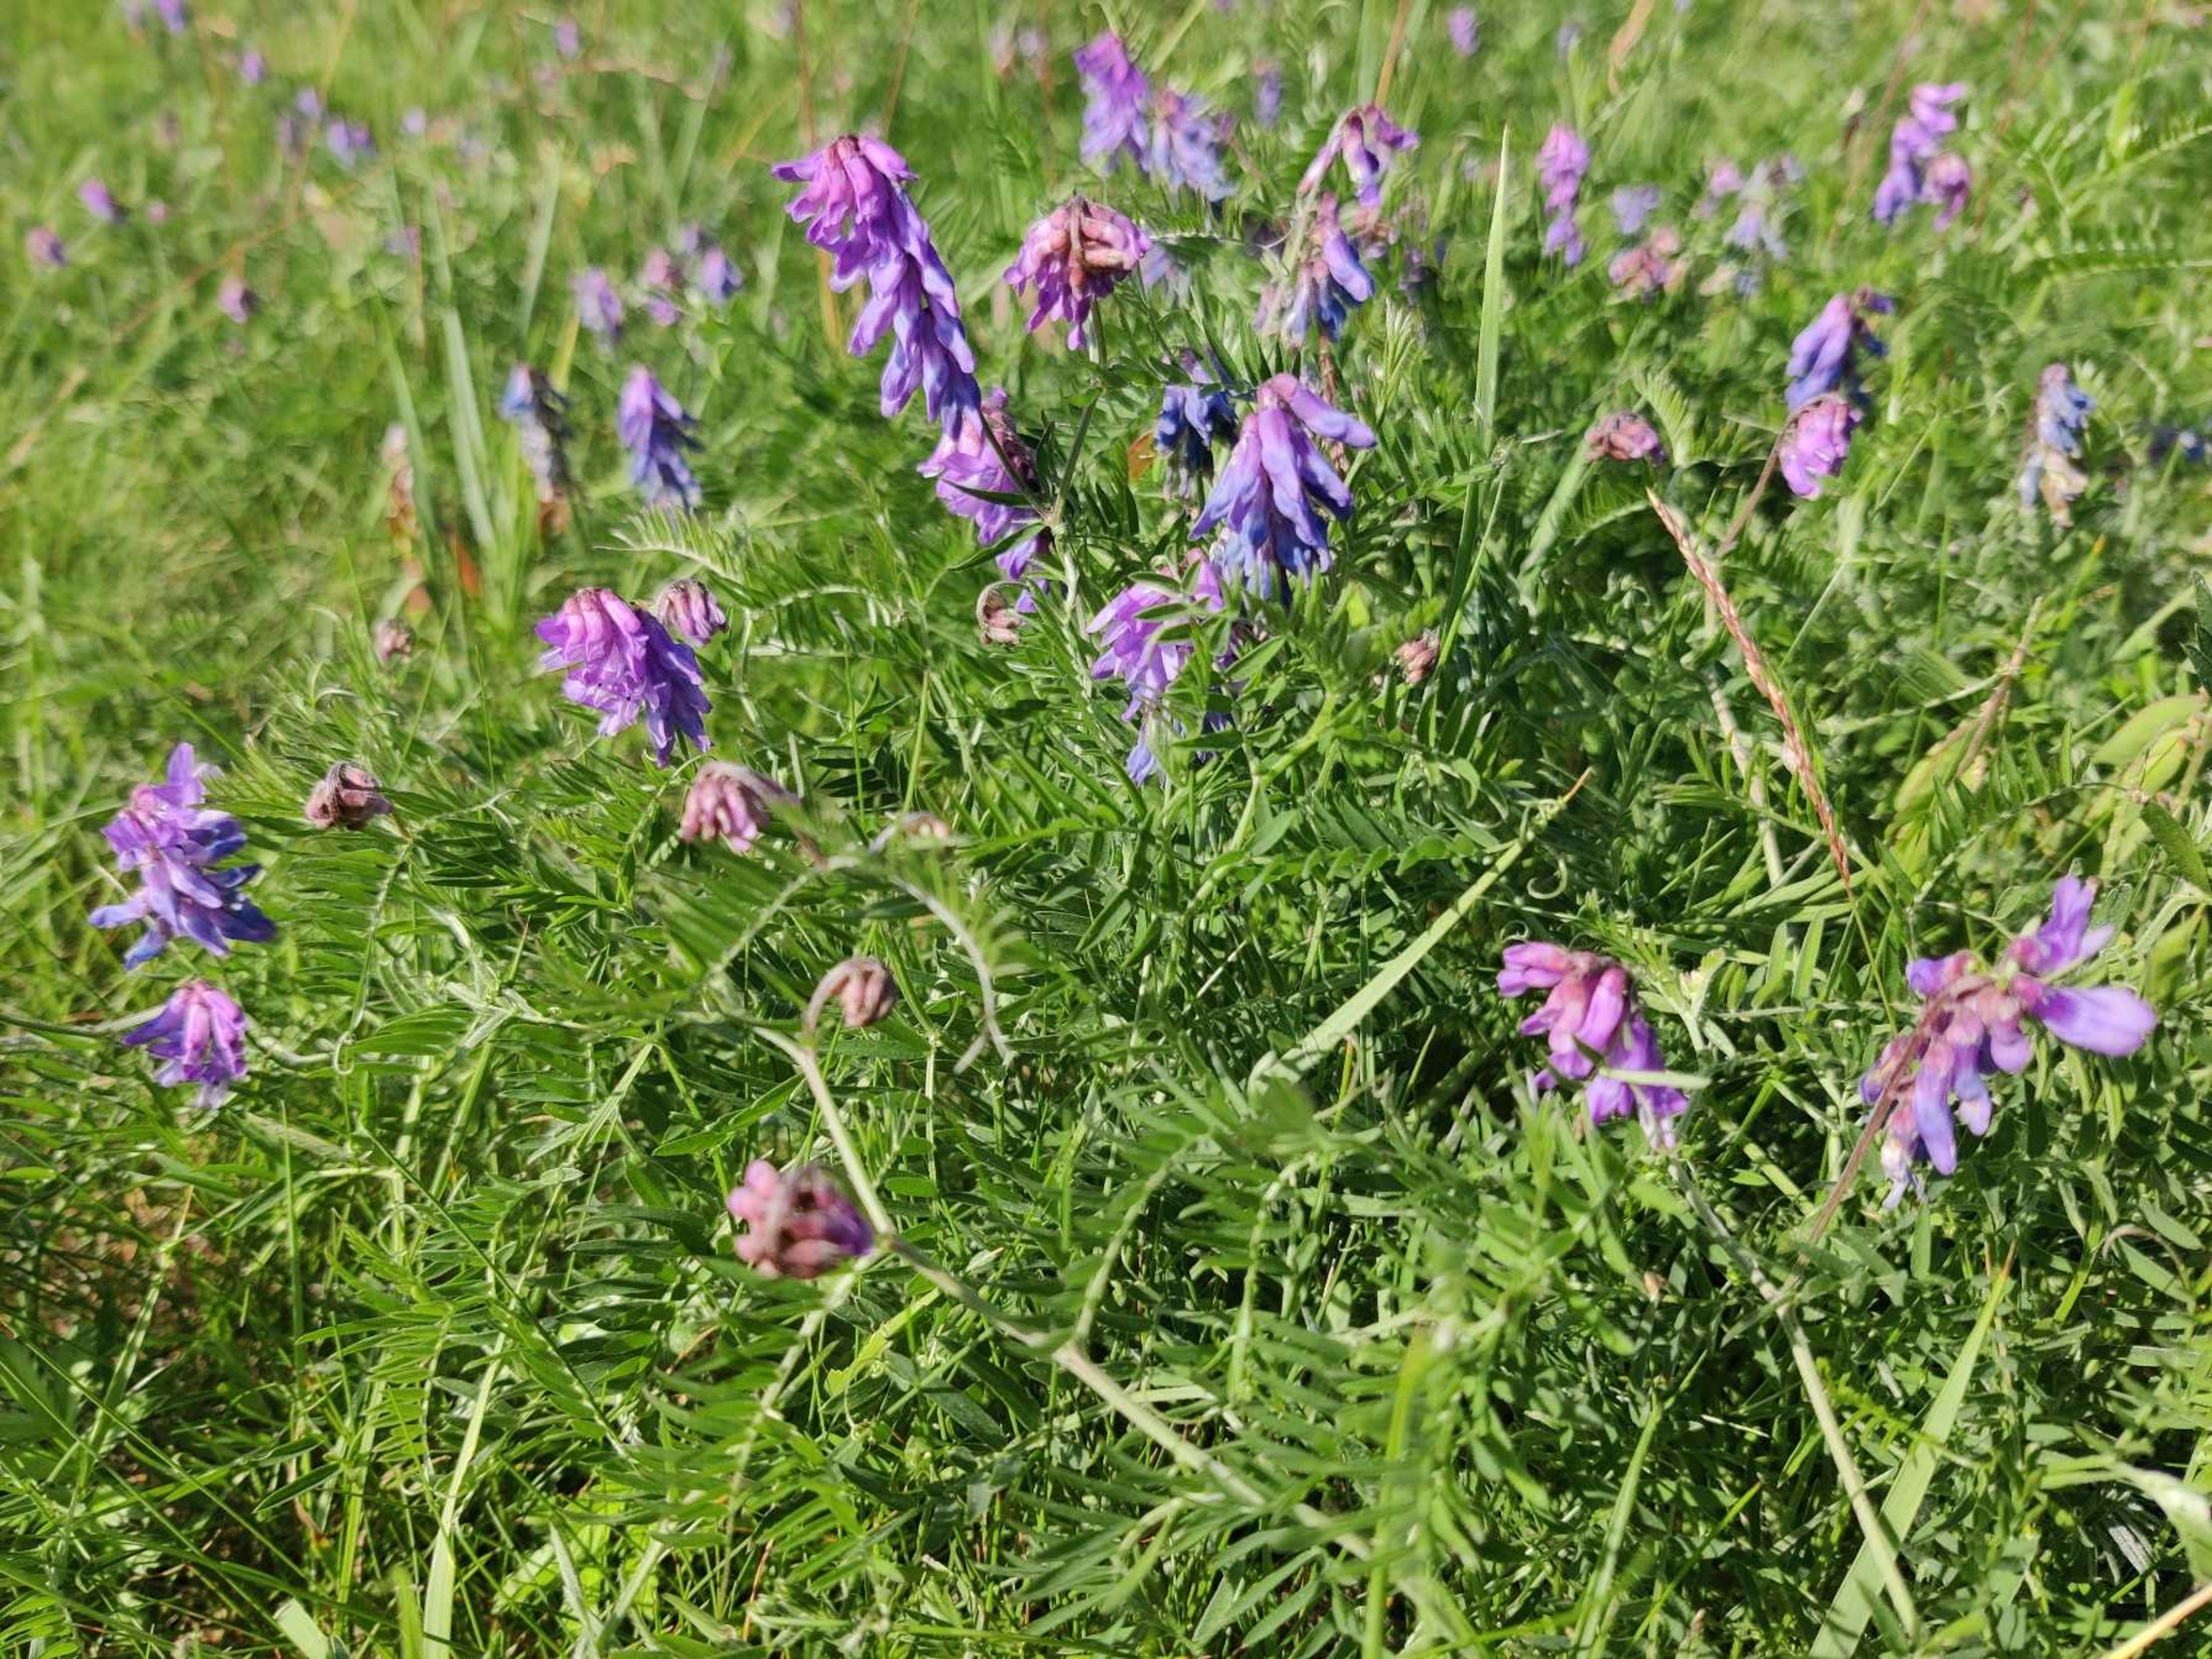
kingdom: Plantae
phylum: Tracheophyta
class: Magnoliopsida
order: Fabales
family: Fabaceae
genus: Vicia
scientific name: Vicia cracca
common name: Muse-vikke
